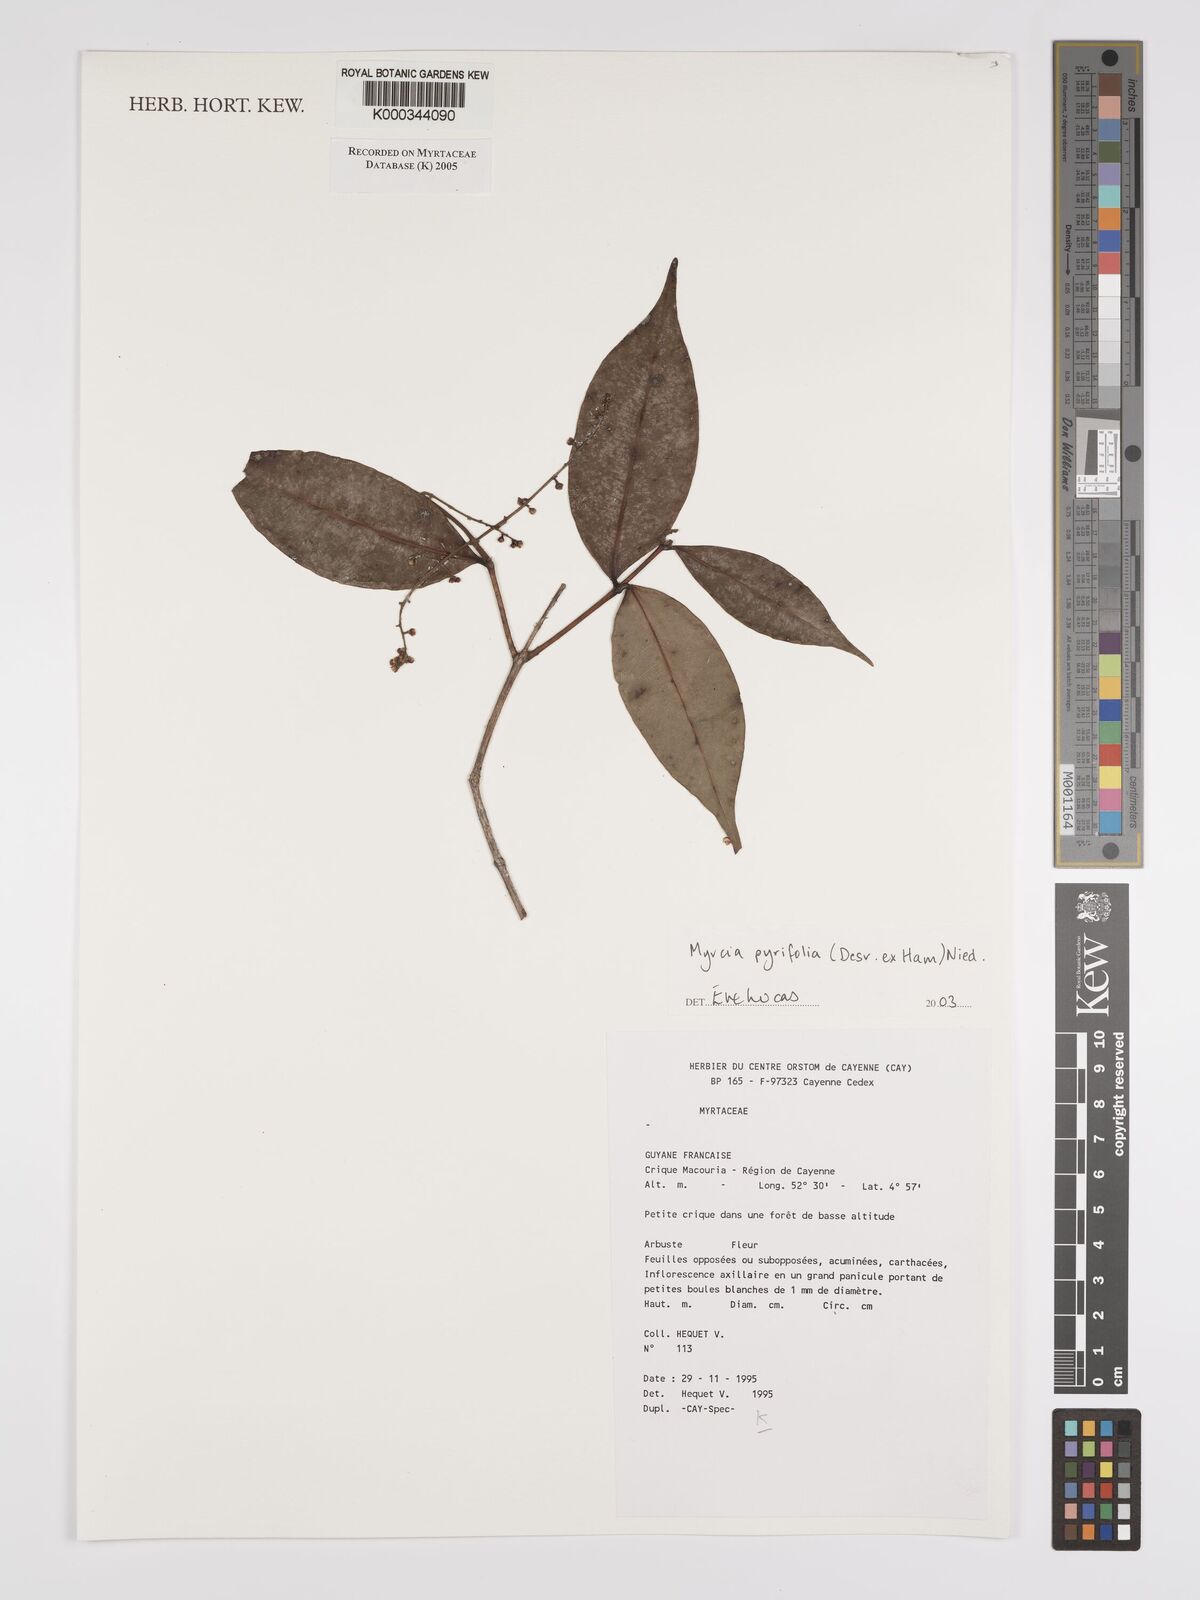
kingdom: Plantae
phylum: Tracheophyta
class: Magnoliopsida
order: Myrtales
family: Myrtaceae
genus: Myrcia
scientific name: Myrcia pyrifolia
